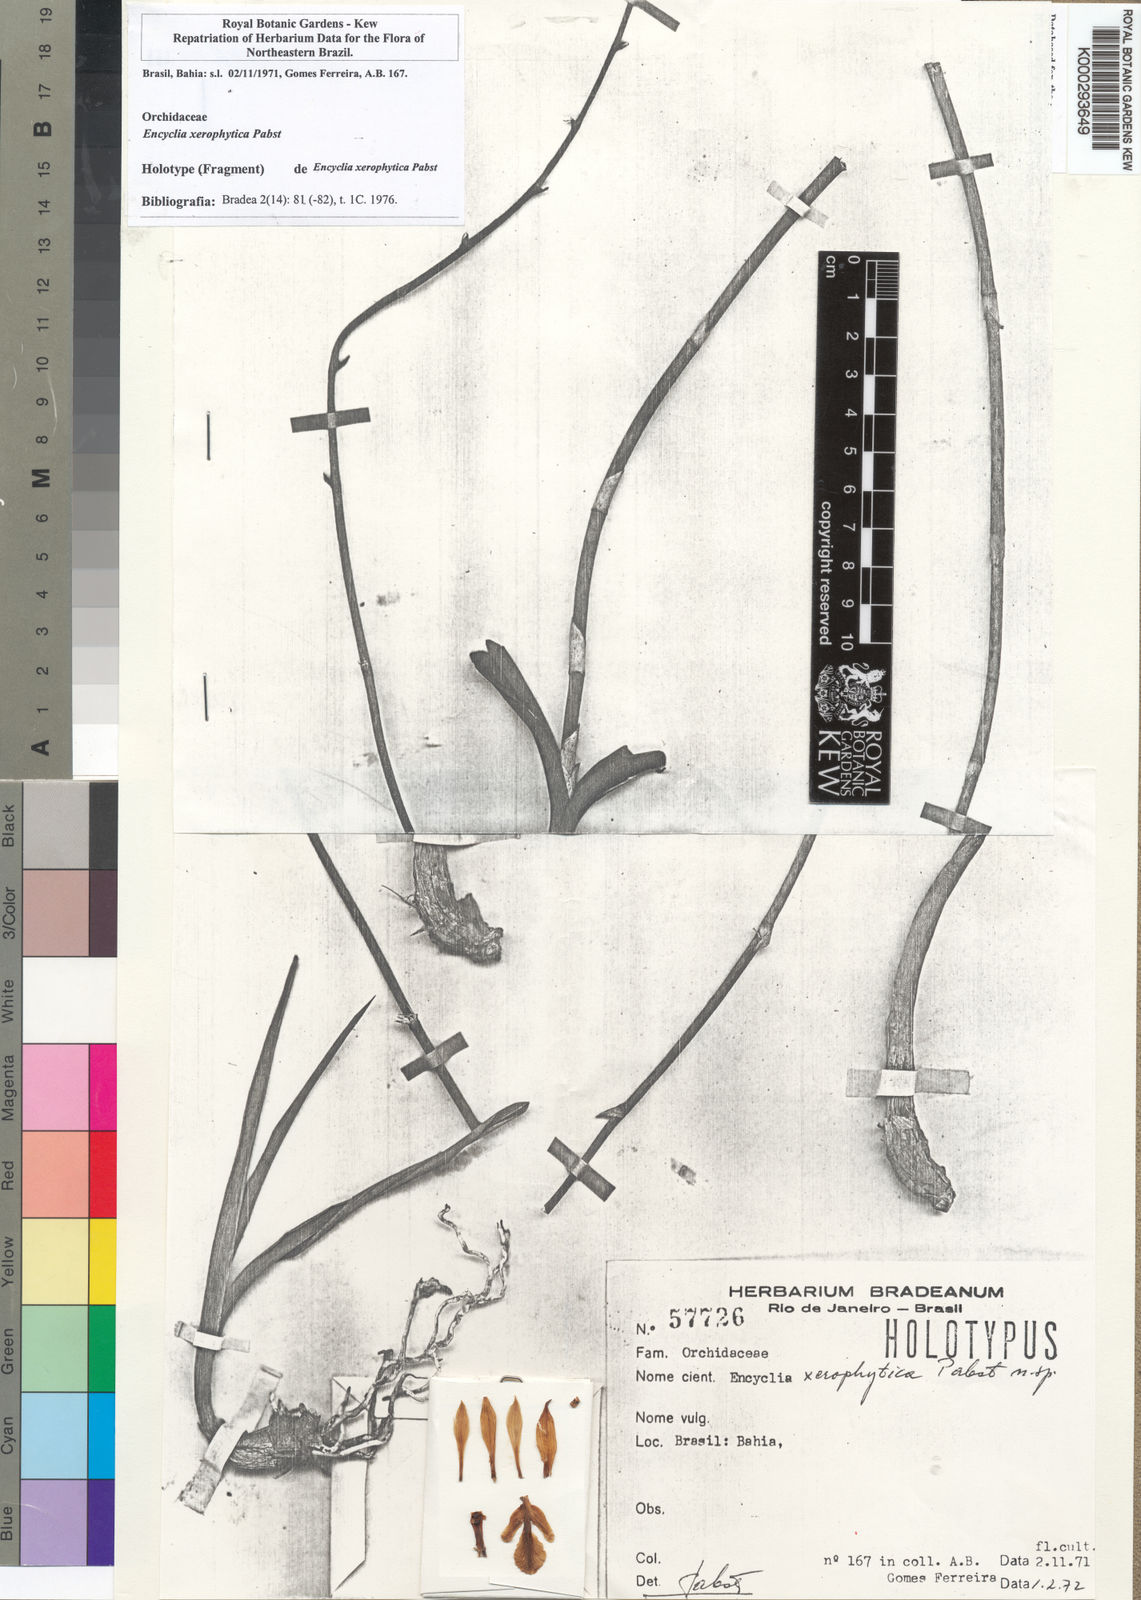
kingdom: Plantae
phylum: Tracheophyta
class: Liliopsida
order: Asparagales
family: Orchidaceae
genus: Encyclia
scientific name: Encyclia xerophytica
